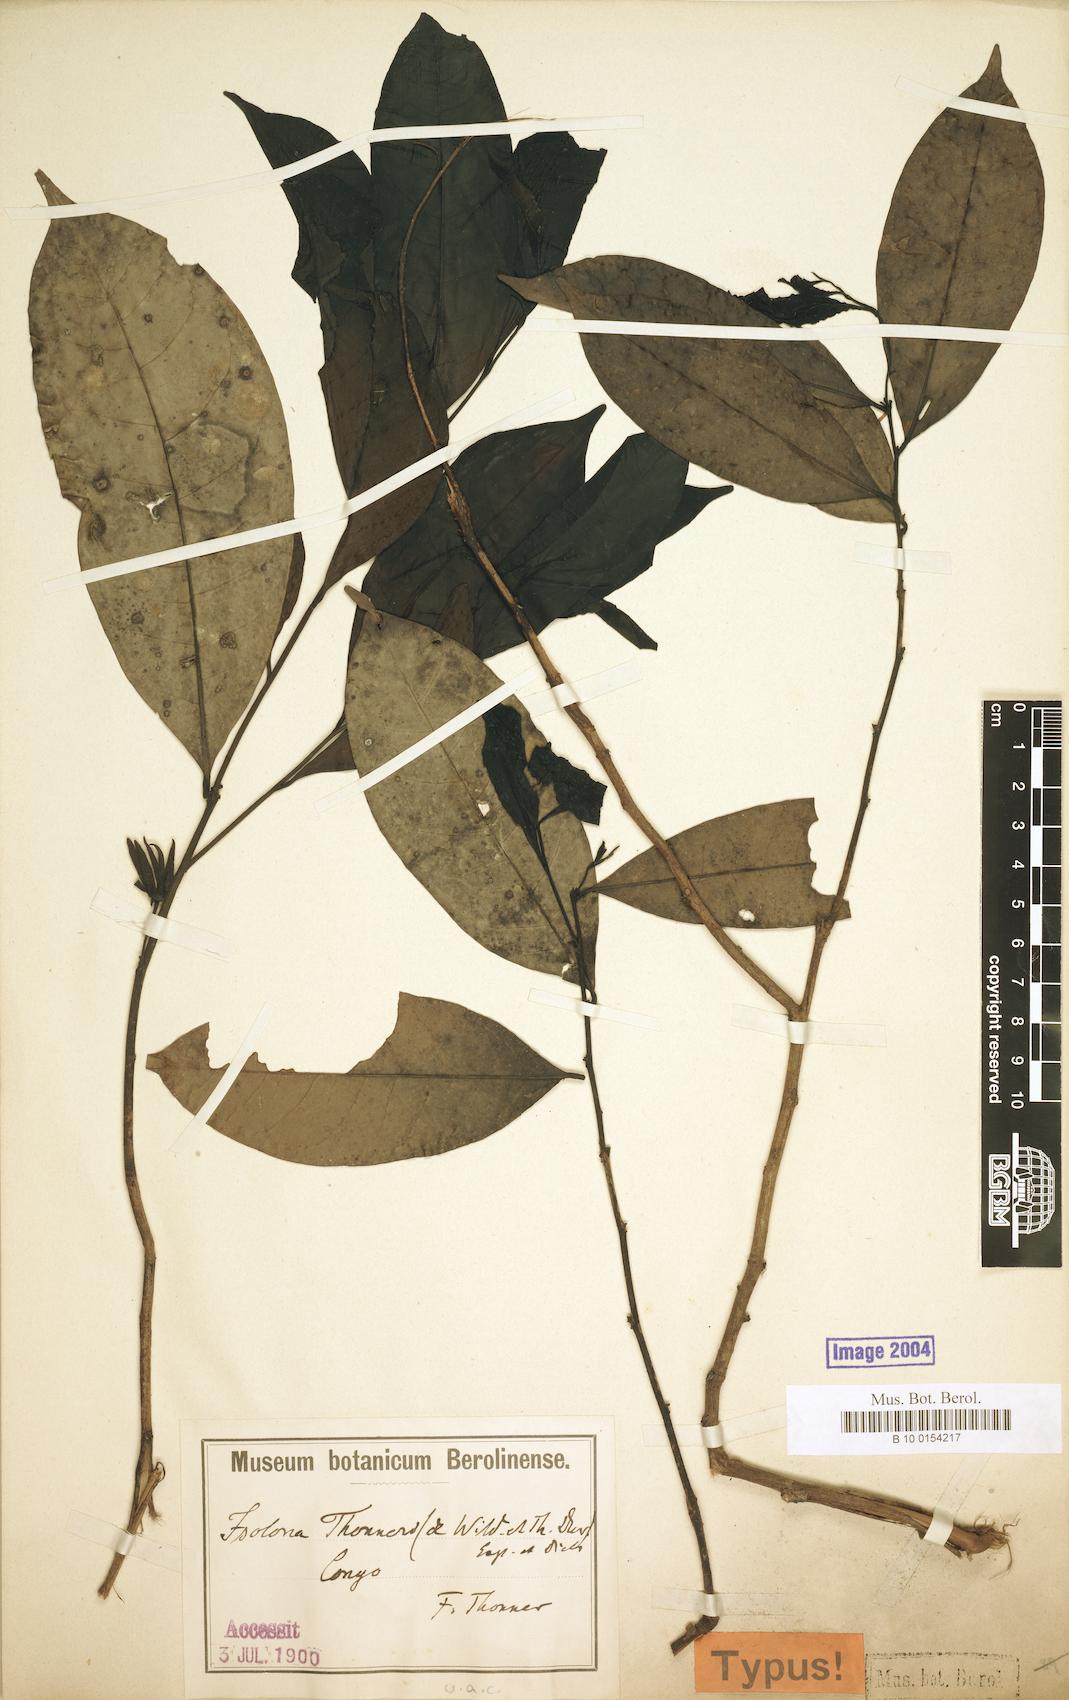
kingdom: Plantae
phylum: Tracheophyta
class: Magnoliopsida
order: Magnoliales
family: Annonaceae
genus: Isolona
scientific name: Isolona thonneri
